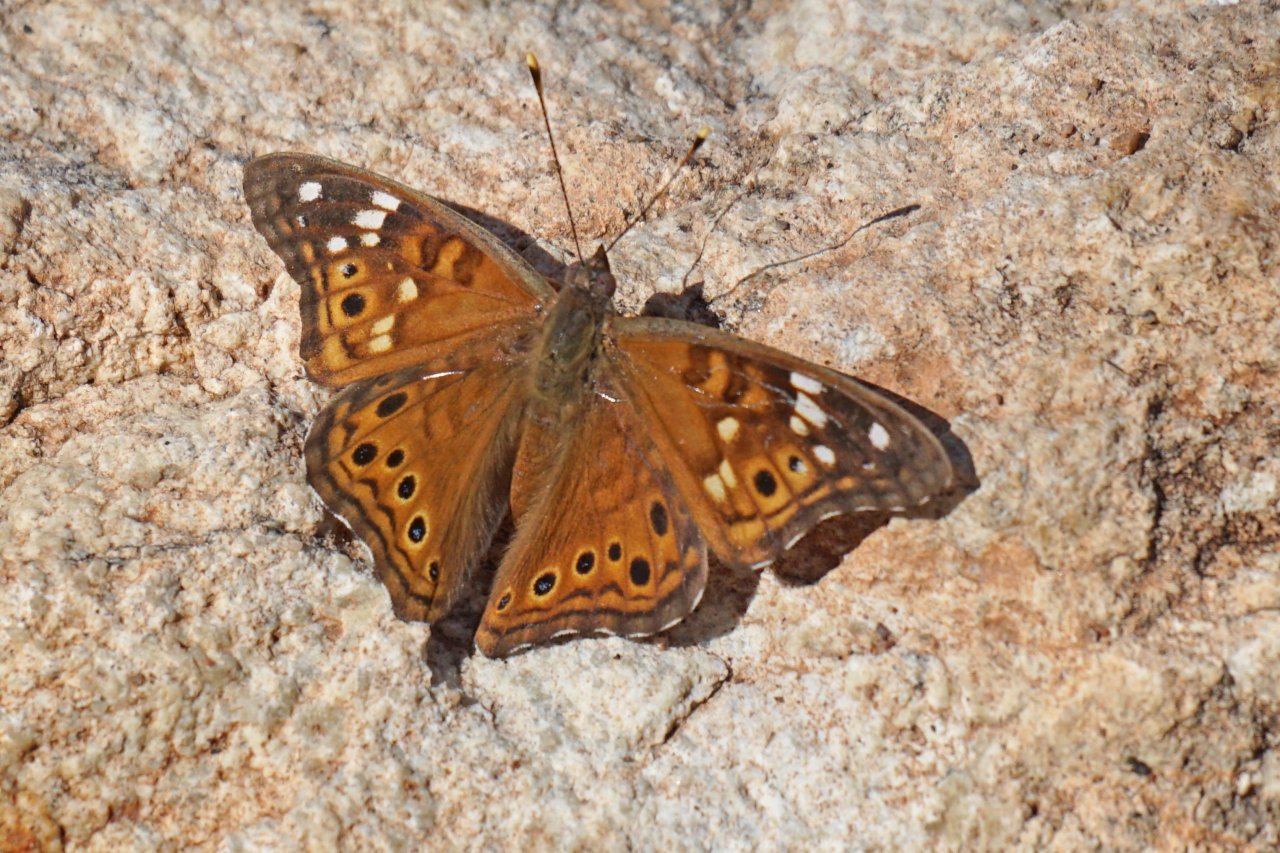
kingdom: Animalia
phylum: Arthropoda
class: Insecta
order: Lepidoptera
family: Nymphalidae
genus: Asterocampa
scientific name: Asterocampa leilia
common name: Empress Leilia
